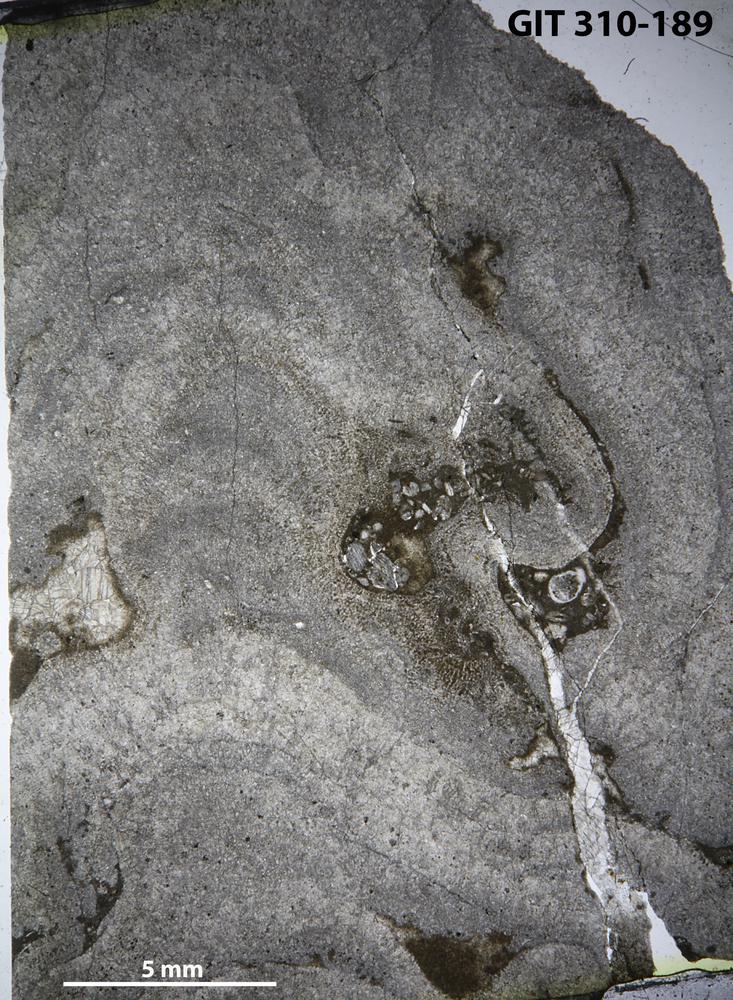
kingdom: Animalia
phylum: Porifera
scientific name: Porifera
